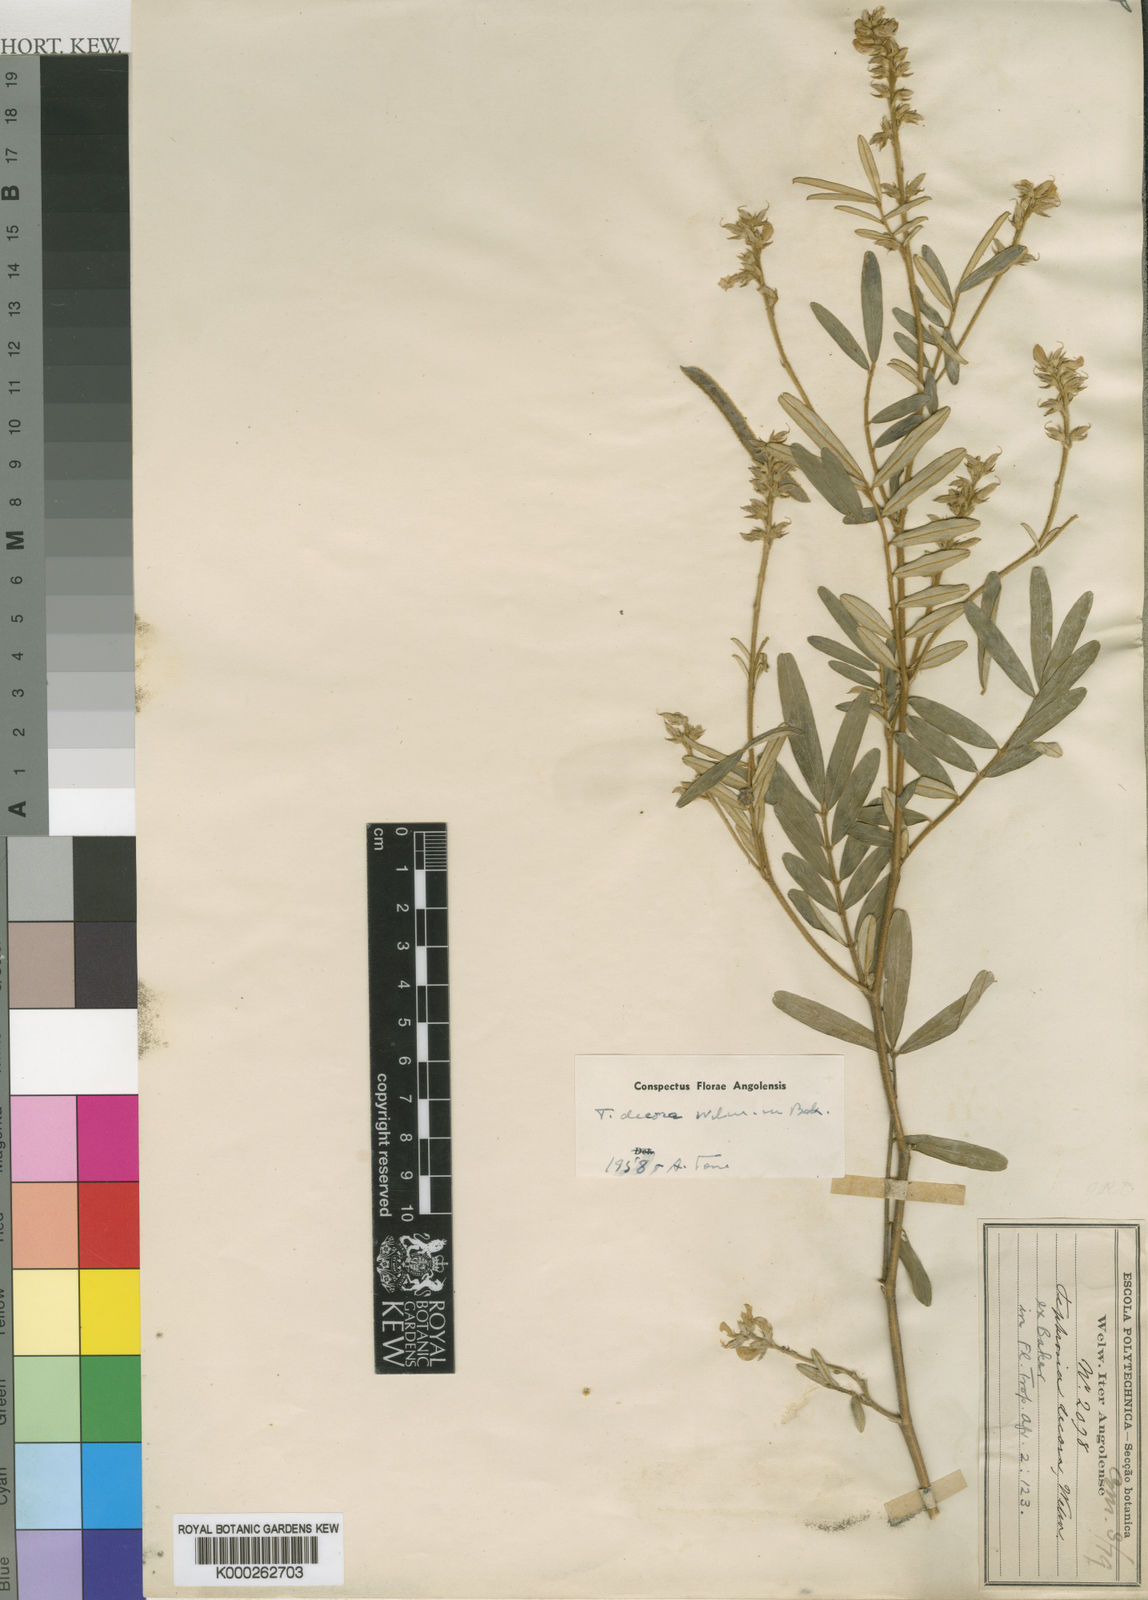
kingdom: Plantae
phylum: Tracheophyta
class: Magnoliopsida
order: Fabales
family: Fabaceae
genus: Tephrosia
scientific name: Tephrosia decora
